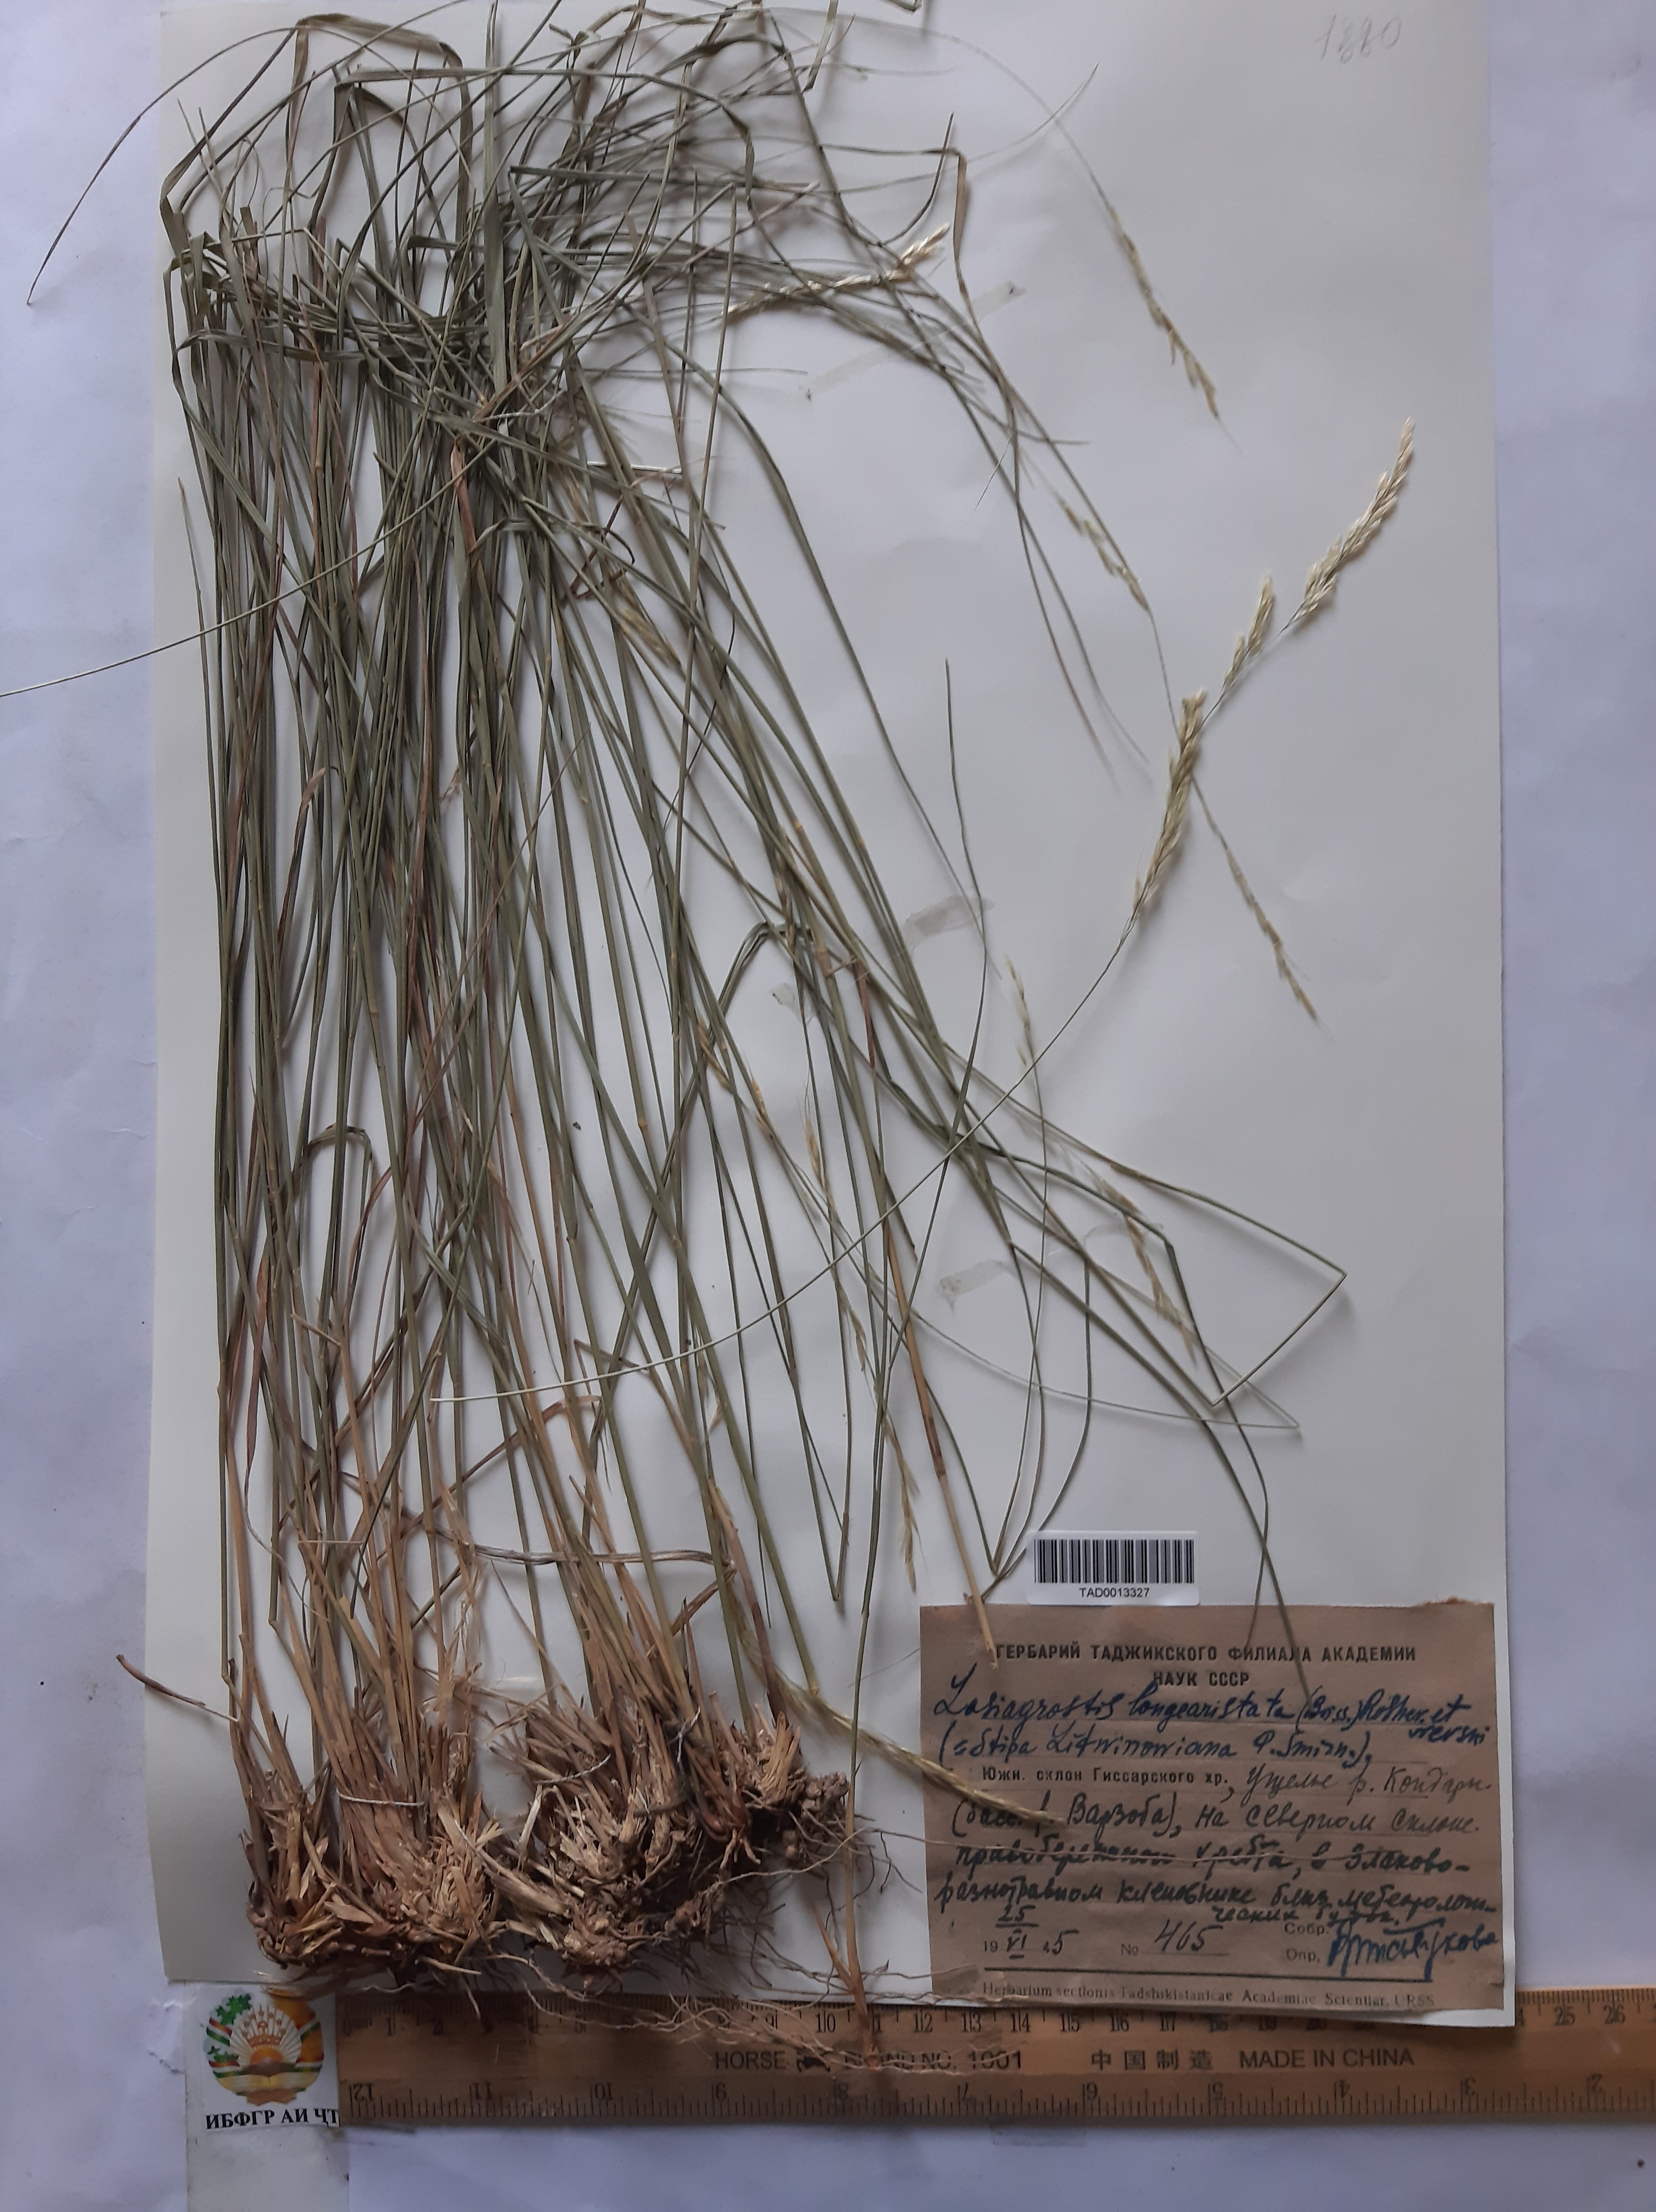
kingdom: Plantae
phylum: Tracheophyta
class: Liliopsida
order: Poales
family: Poaceae
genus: Achnatherum
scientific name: Achnatherum turcomanicum
